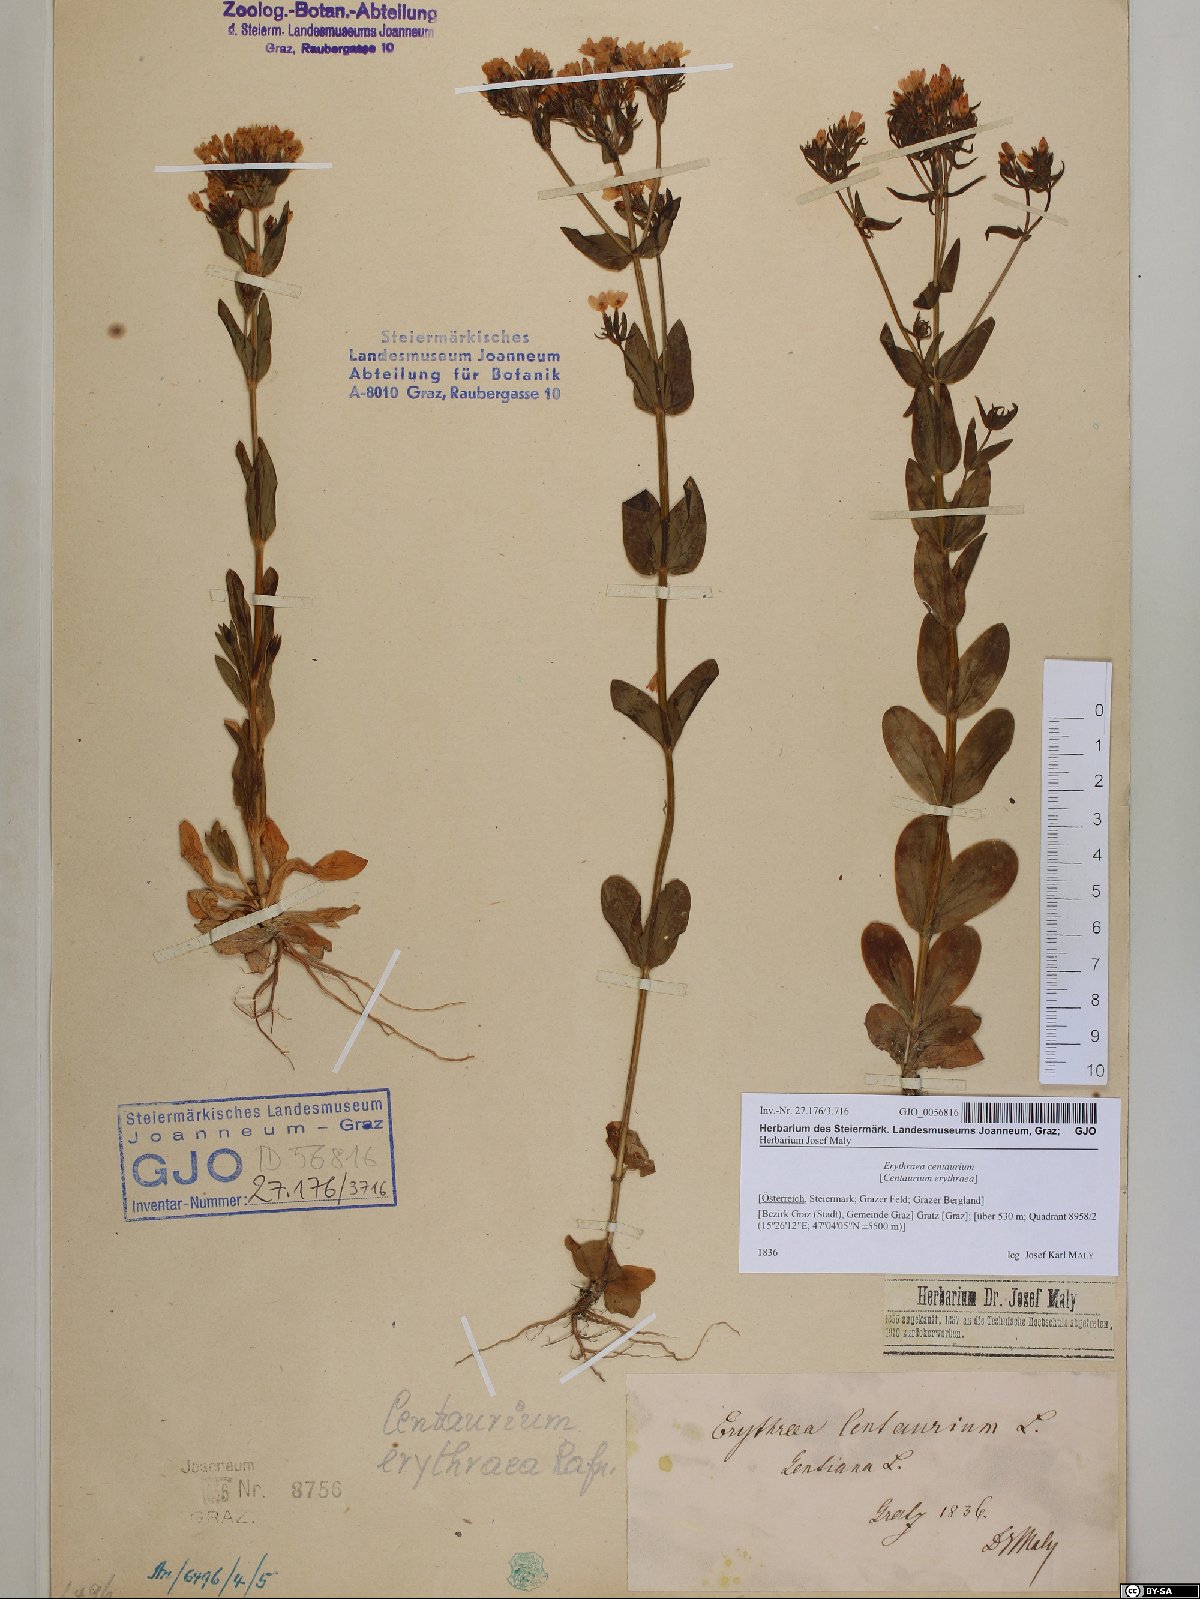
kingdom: Plantae
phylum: Tracheophyta
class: Magnoliopsida
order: Gentianales
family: Gentianaceae
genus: Centaurium
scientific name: Centaurium erythraea
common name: Common centaury
